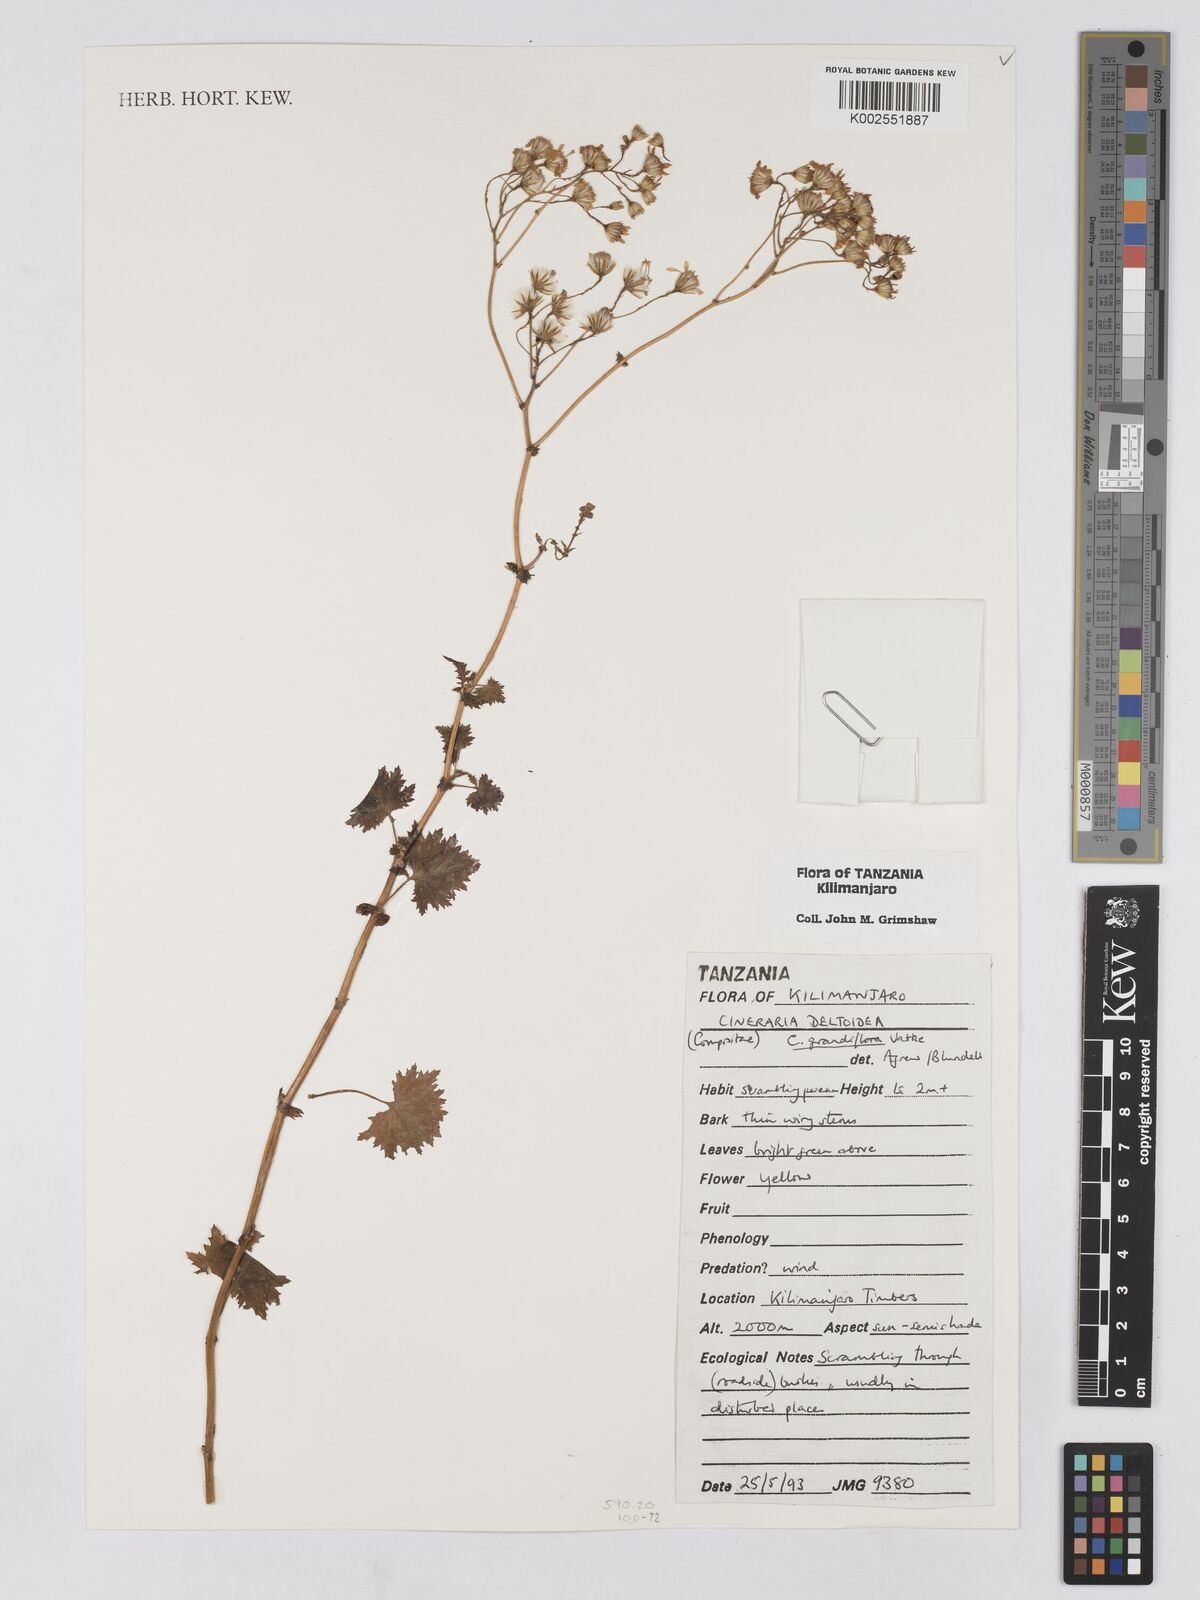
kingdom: Plantae
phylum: Tracheophyta
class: Magnoliopsida
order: Asterales
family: Asteraceae
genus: Cineraria
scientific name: Cineraria deltoidea
